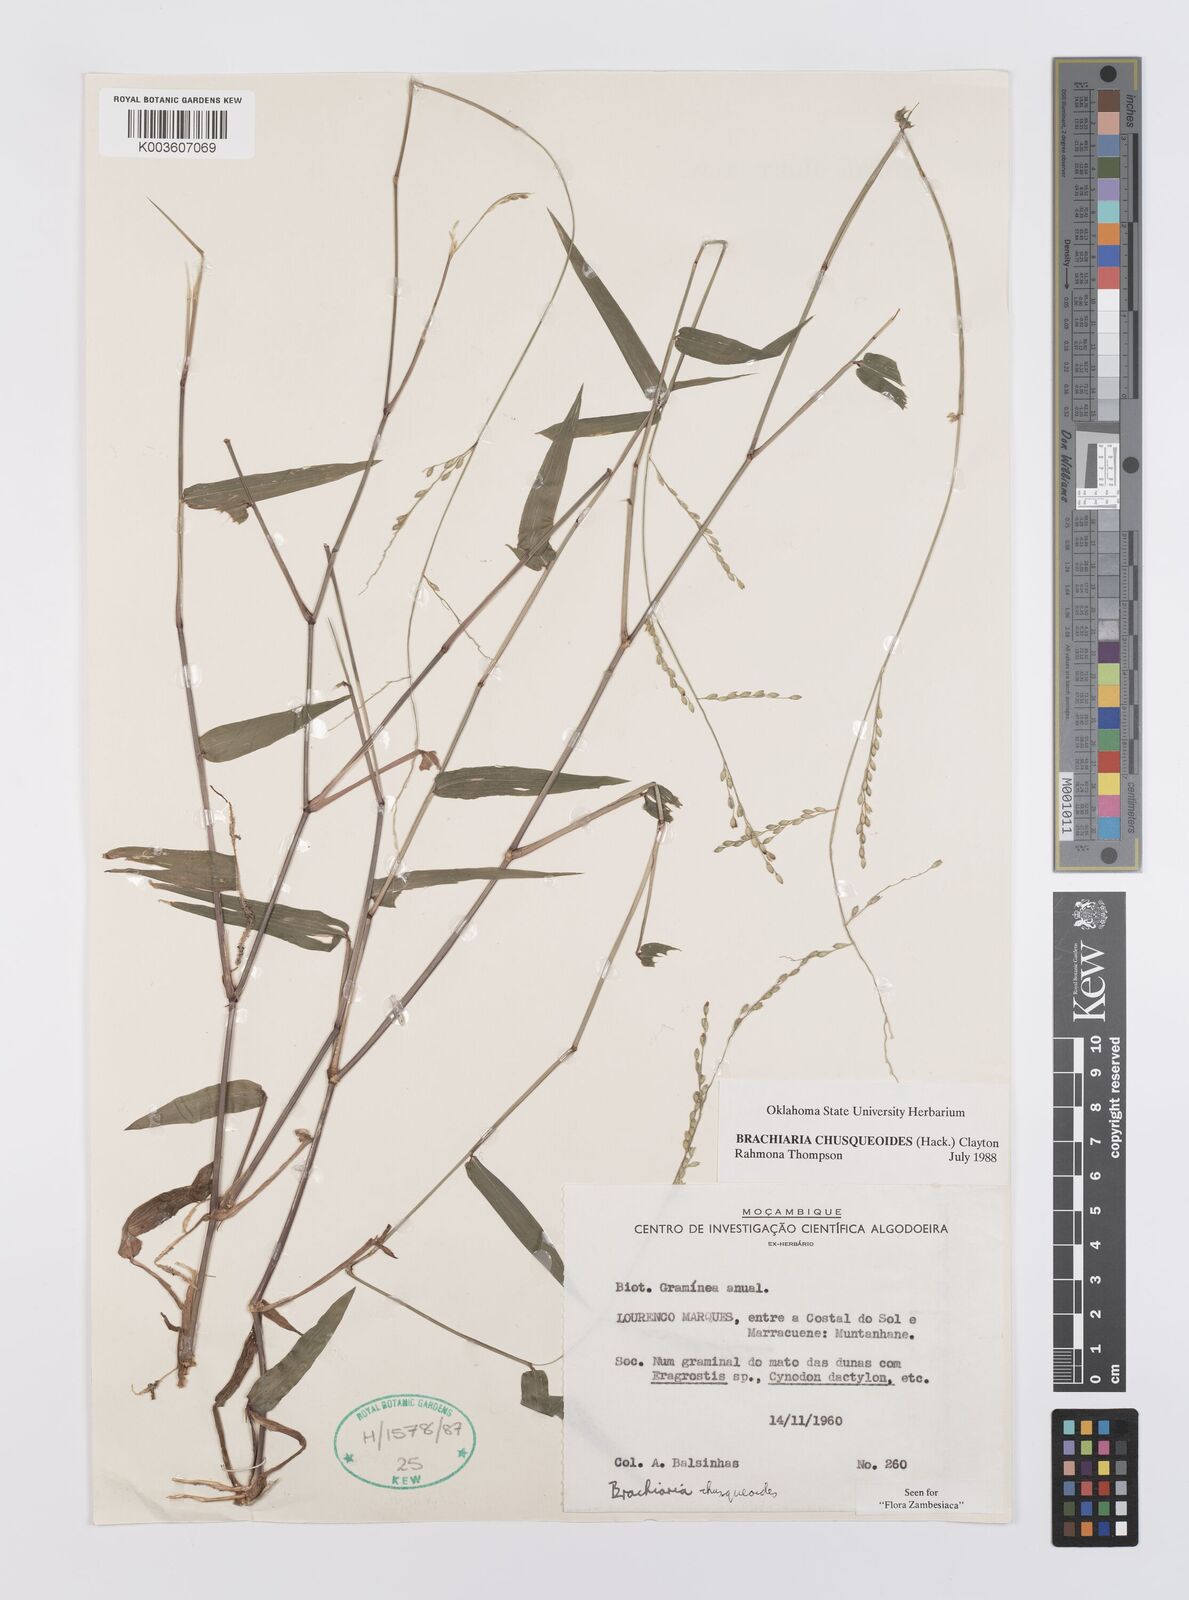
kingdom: Plantae
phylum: Tracheophyta
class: Liliopsida
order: Poales
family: Poaceae
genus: Urochloa
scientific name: Urochloa chusqueoides
